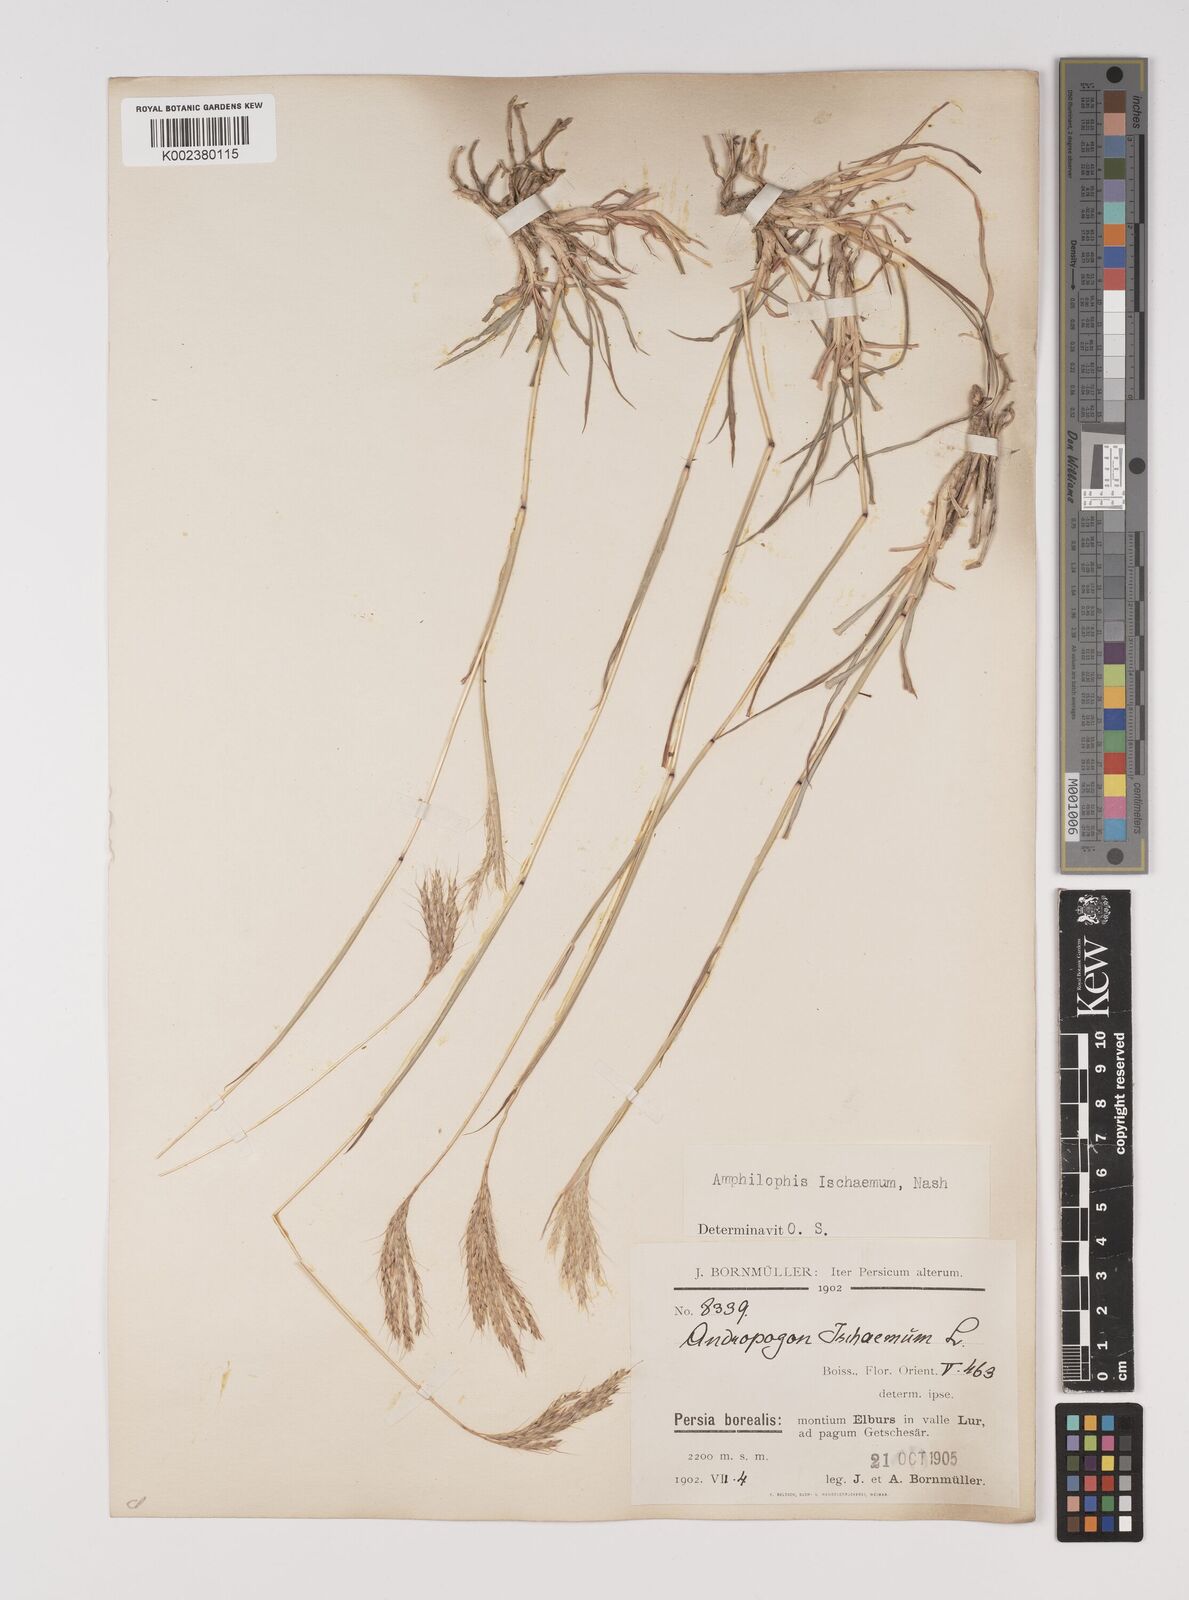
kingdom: Plantae
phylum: Tracheophyta
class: Liliopsida
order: Poales
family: Poaceae
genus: Bothriochloa
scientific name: Bothriochloa ischaemum
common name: Yellow bluestem
